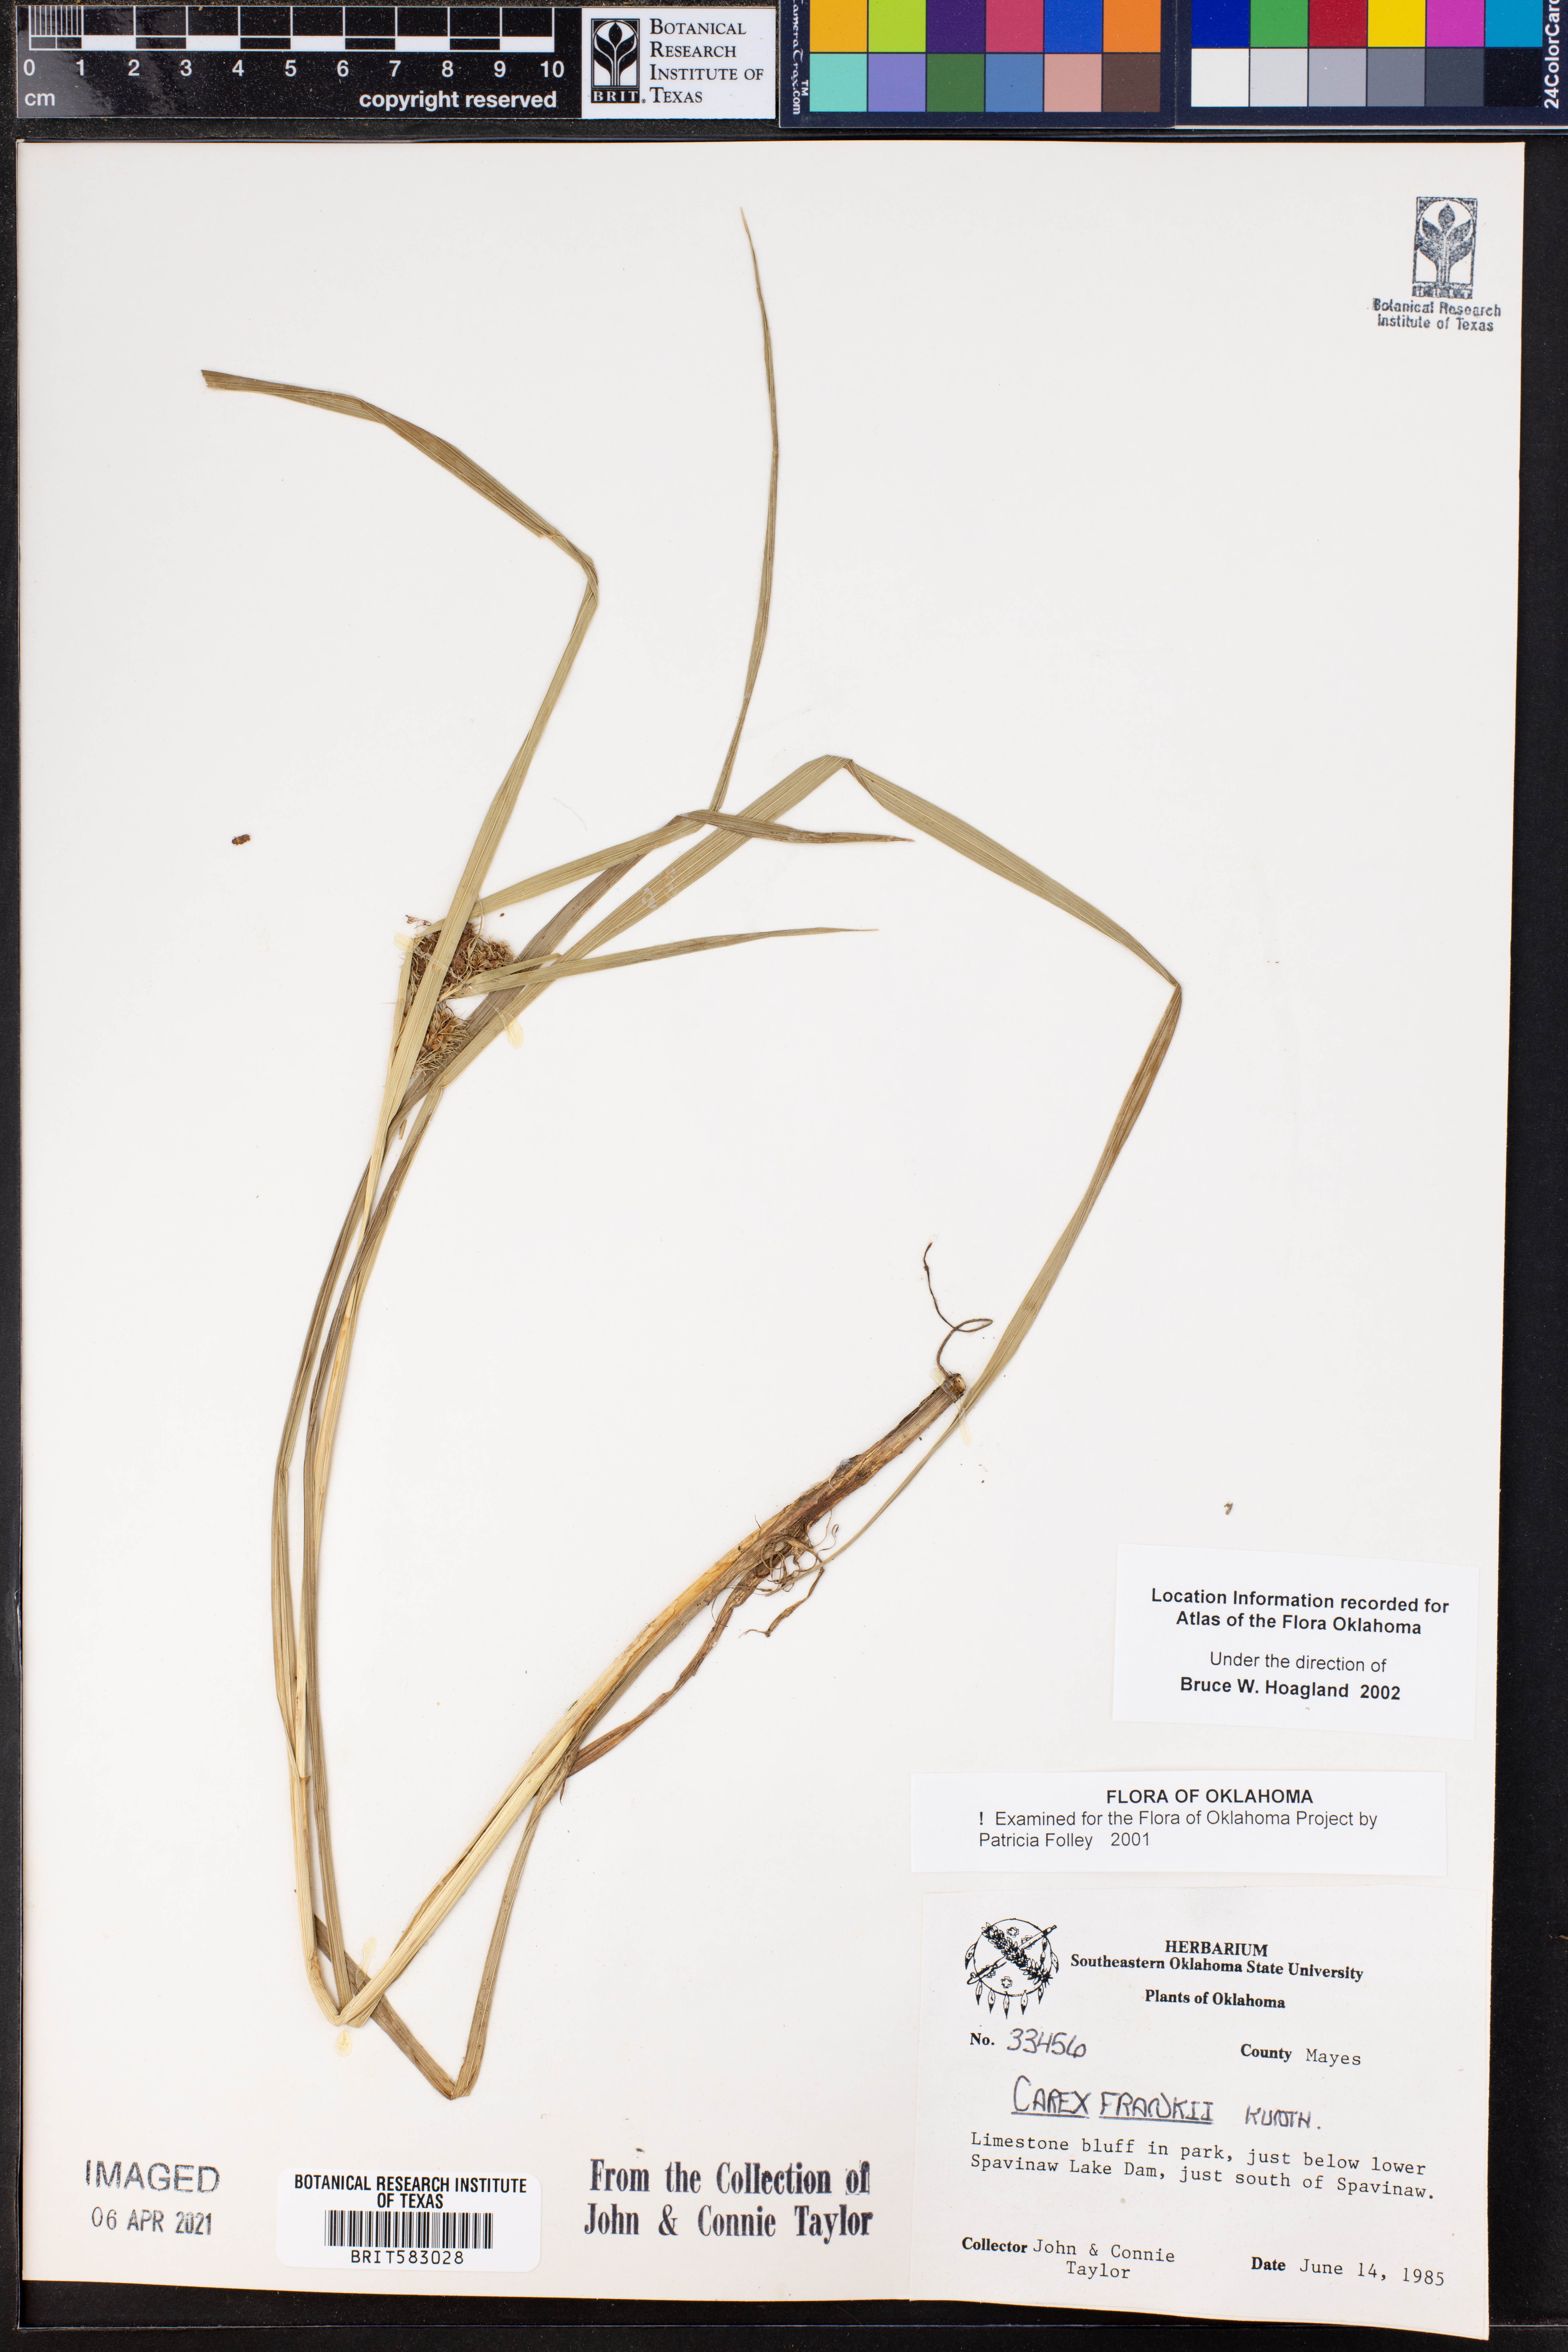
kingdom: Plantae
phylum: Tracheophyta
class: Liliopsida
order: Poales
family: Cyperaceae
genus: Carex
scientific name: Carex frankii
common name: Frank's sedge
